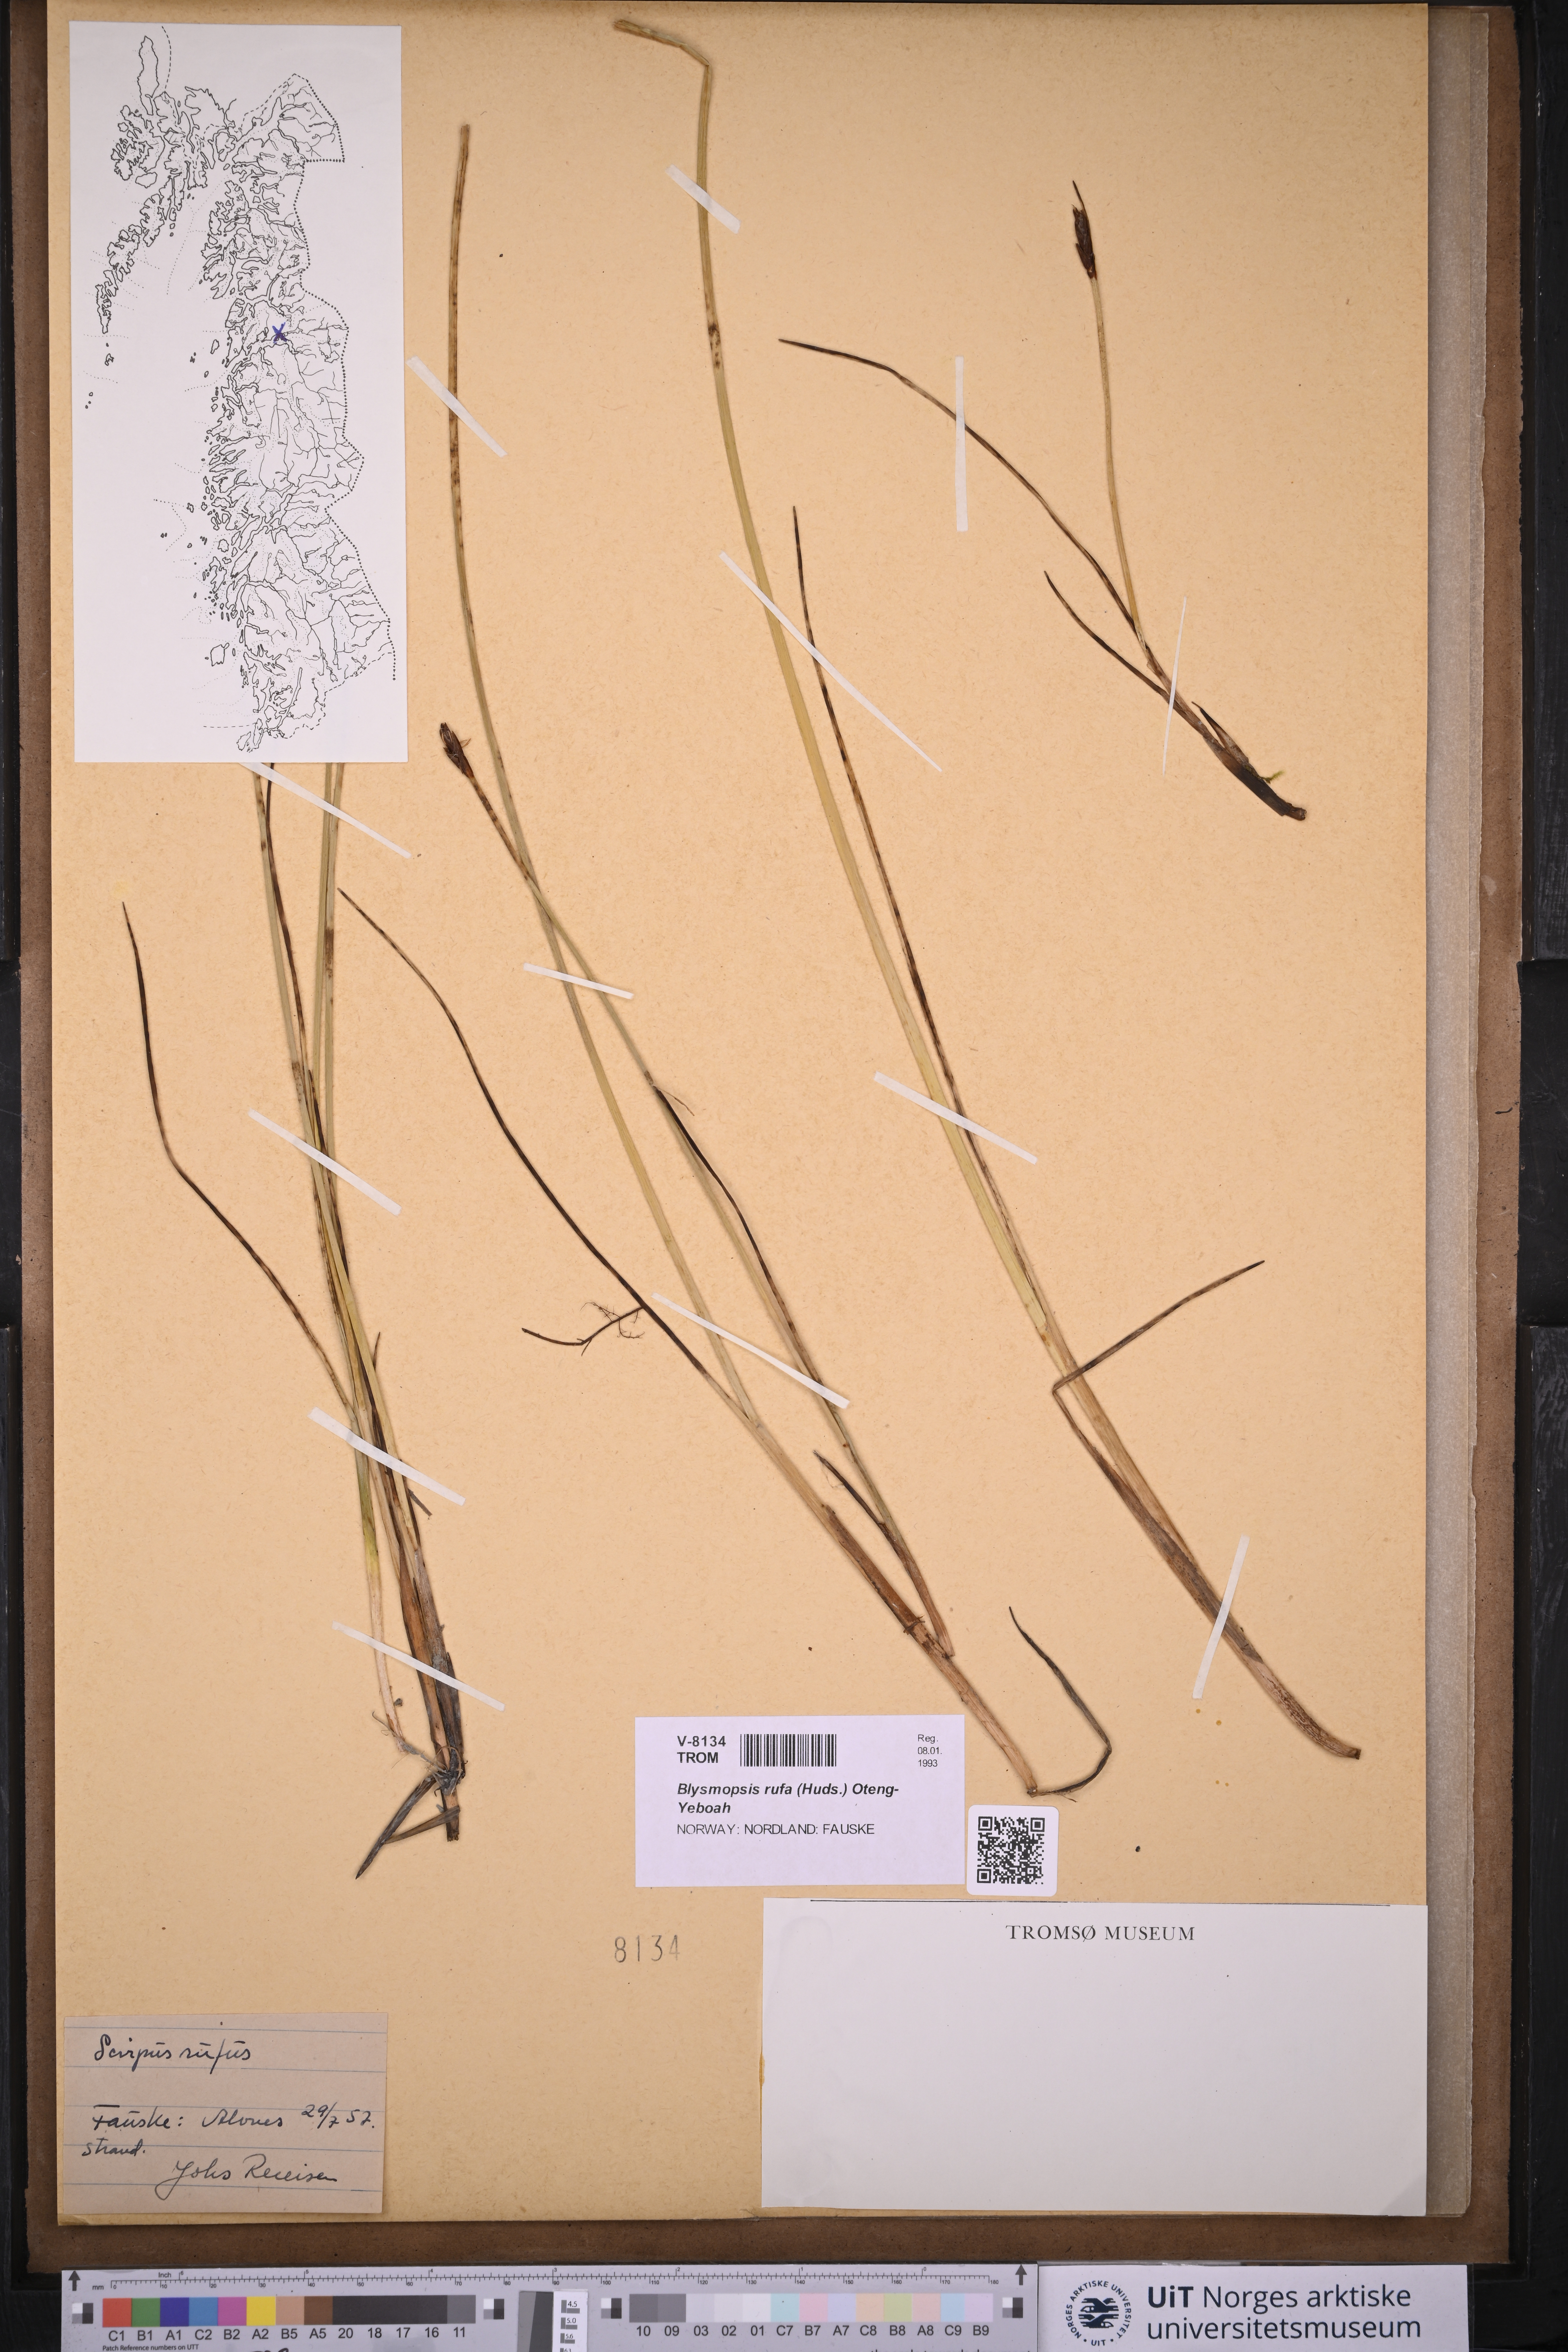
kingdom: Plantae
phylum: Tracheophyta
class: Liliopsida
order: Poales
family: Cyperaceae
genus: Blysmus
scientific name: Blysmus rufus
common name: Saltmarsh flat-sedge
